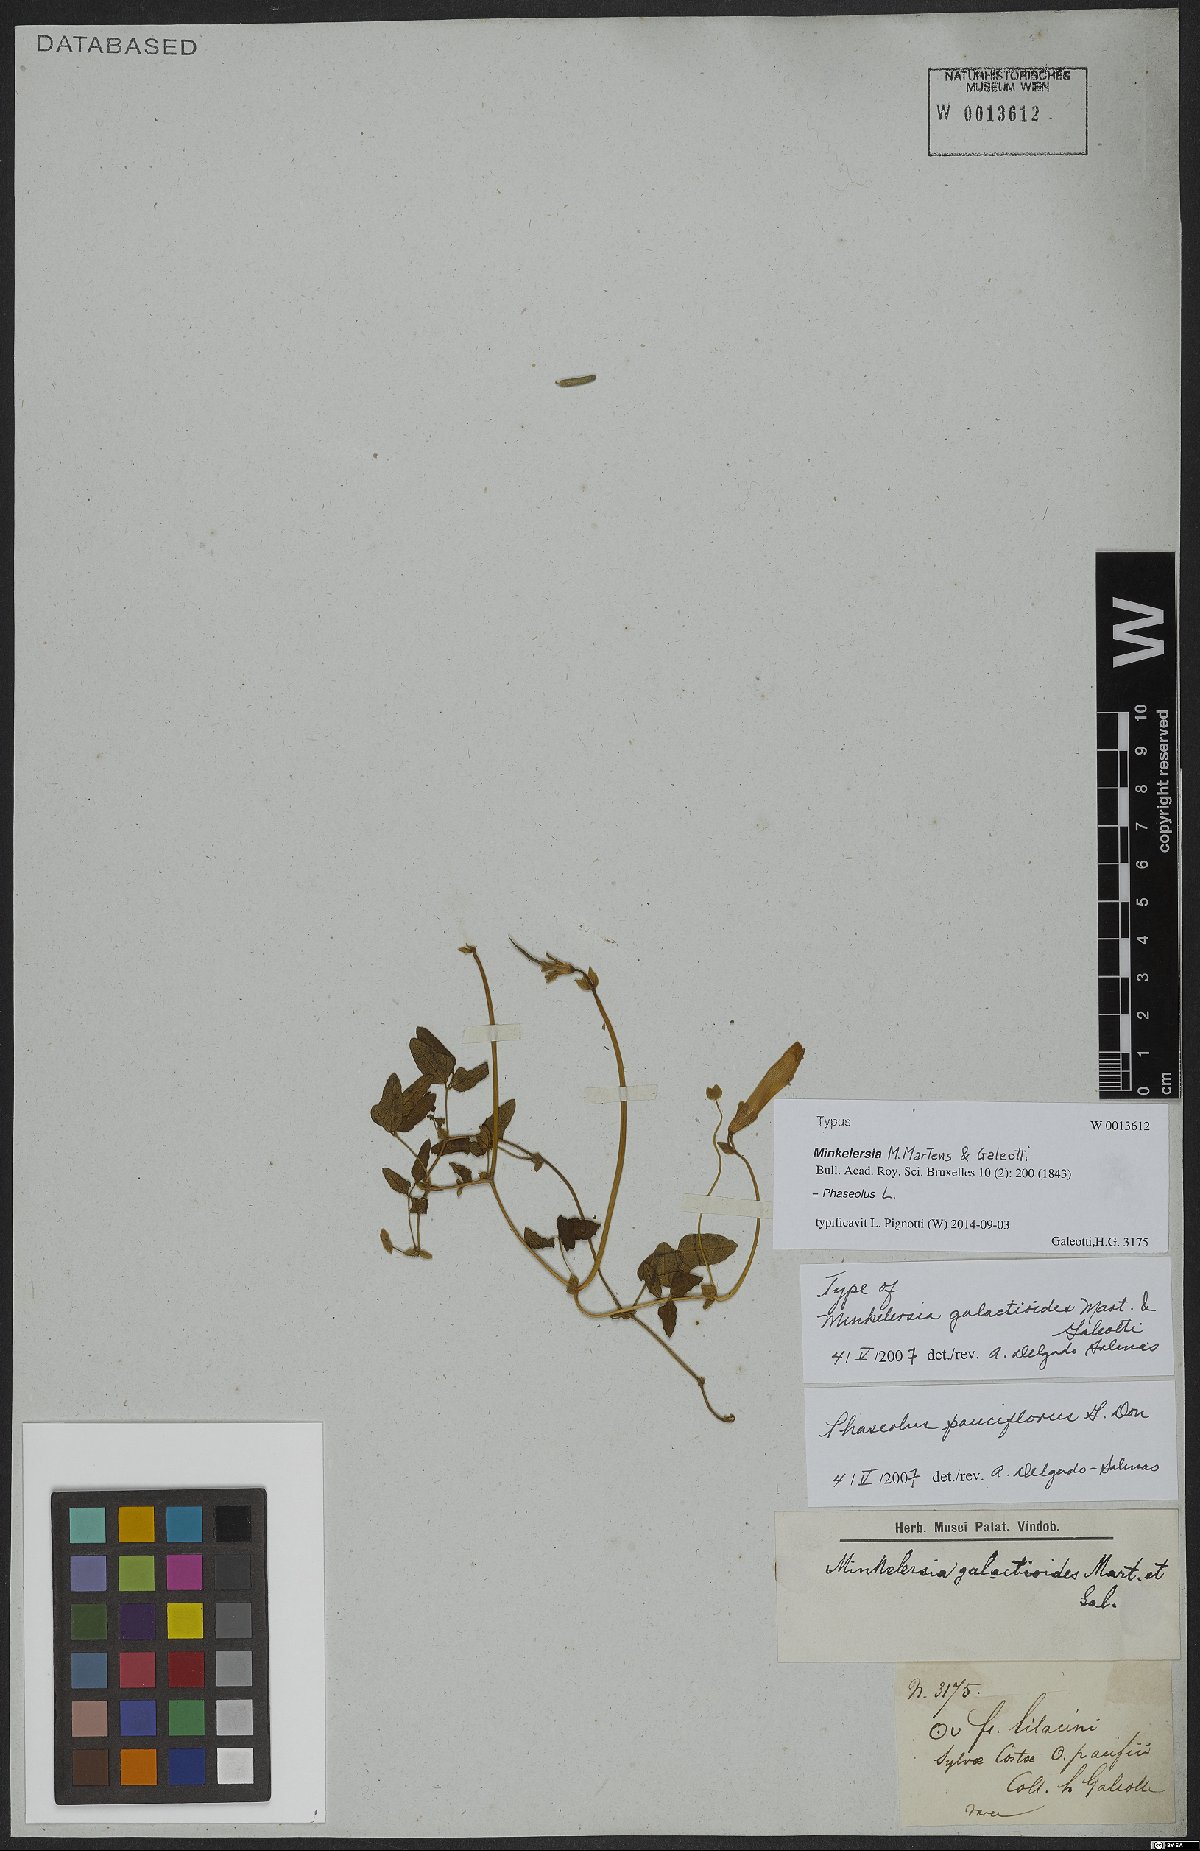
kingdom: Plantae
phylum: Tracheophyta
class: Magnoliopsida
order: Fabales
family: Fabaceae
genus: Phaseolus
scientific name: Phaseolus pauciflorus
